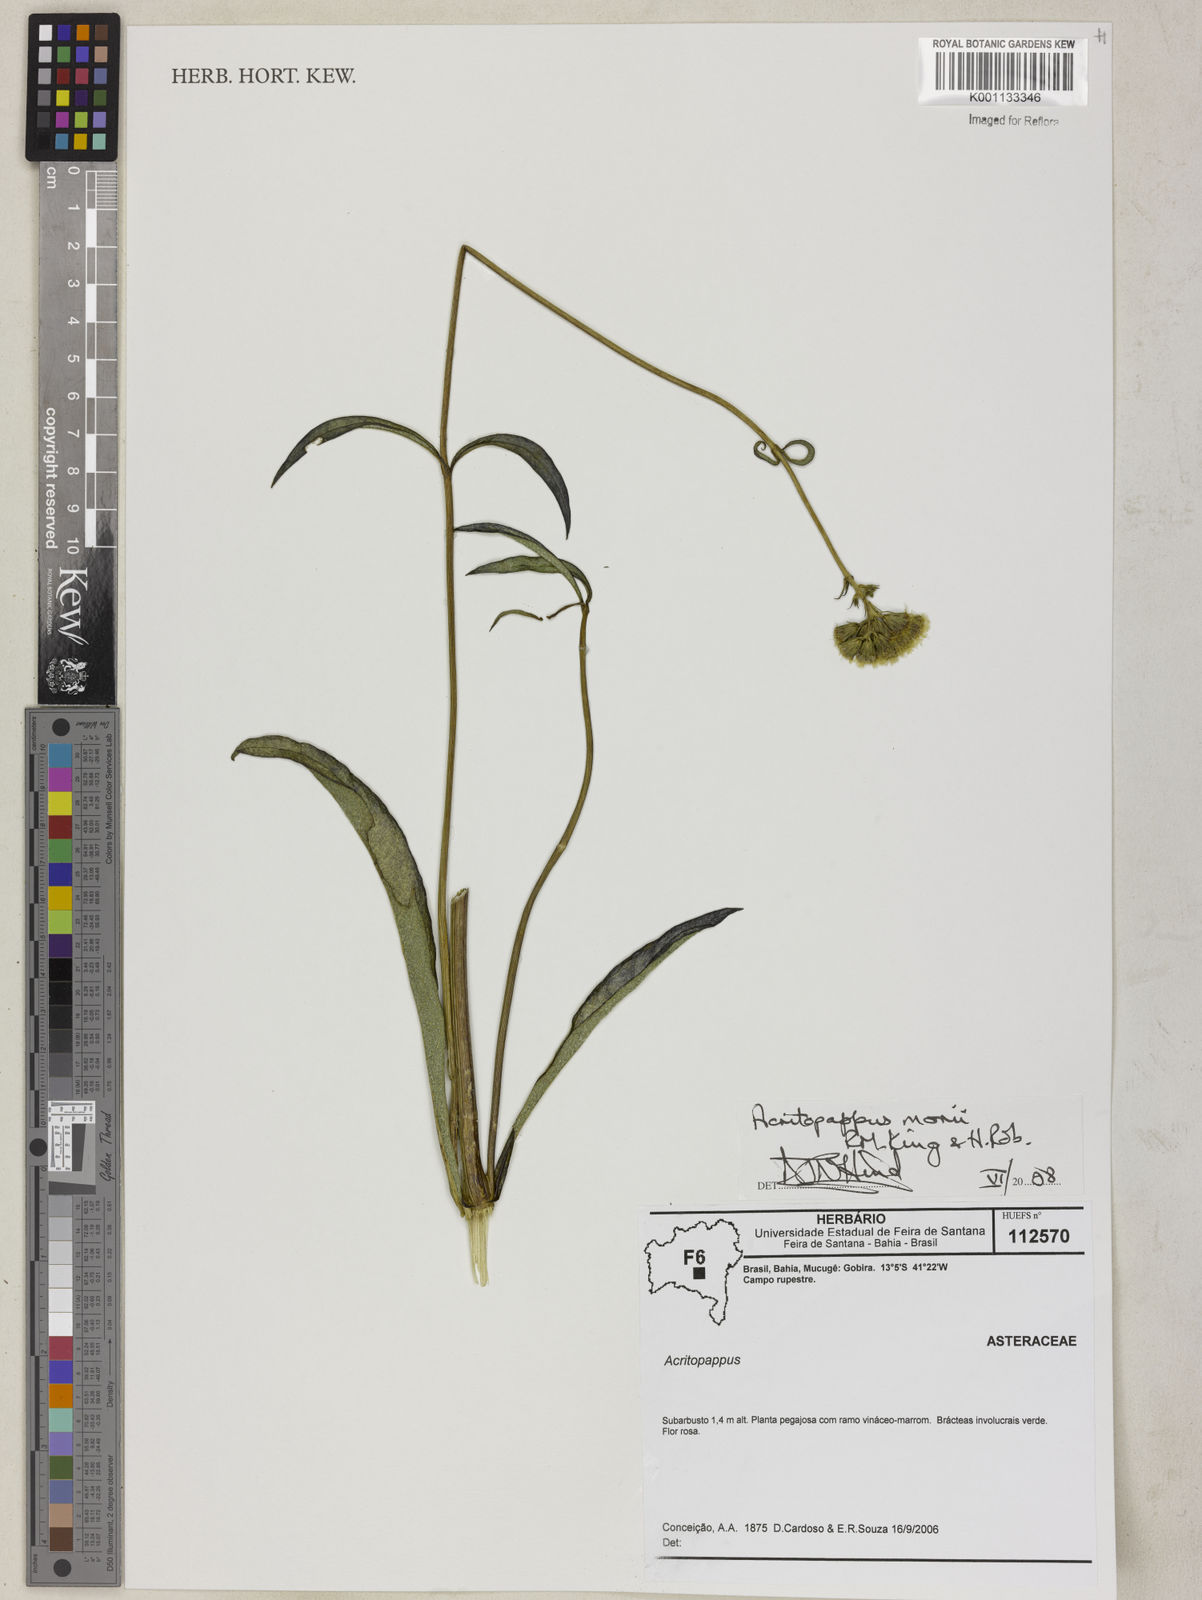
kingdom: Plantae
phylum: Tracheophyta
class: Magnoliopsida
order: Asterales
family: Asteraceae
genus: Acritopappus
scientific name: Acritopappus morii
